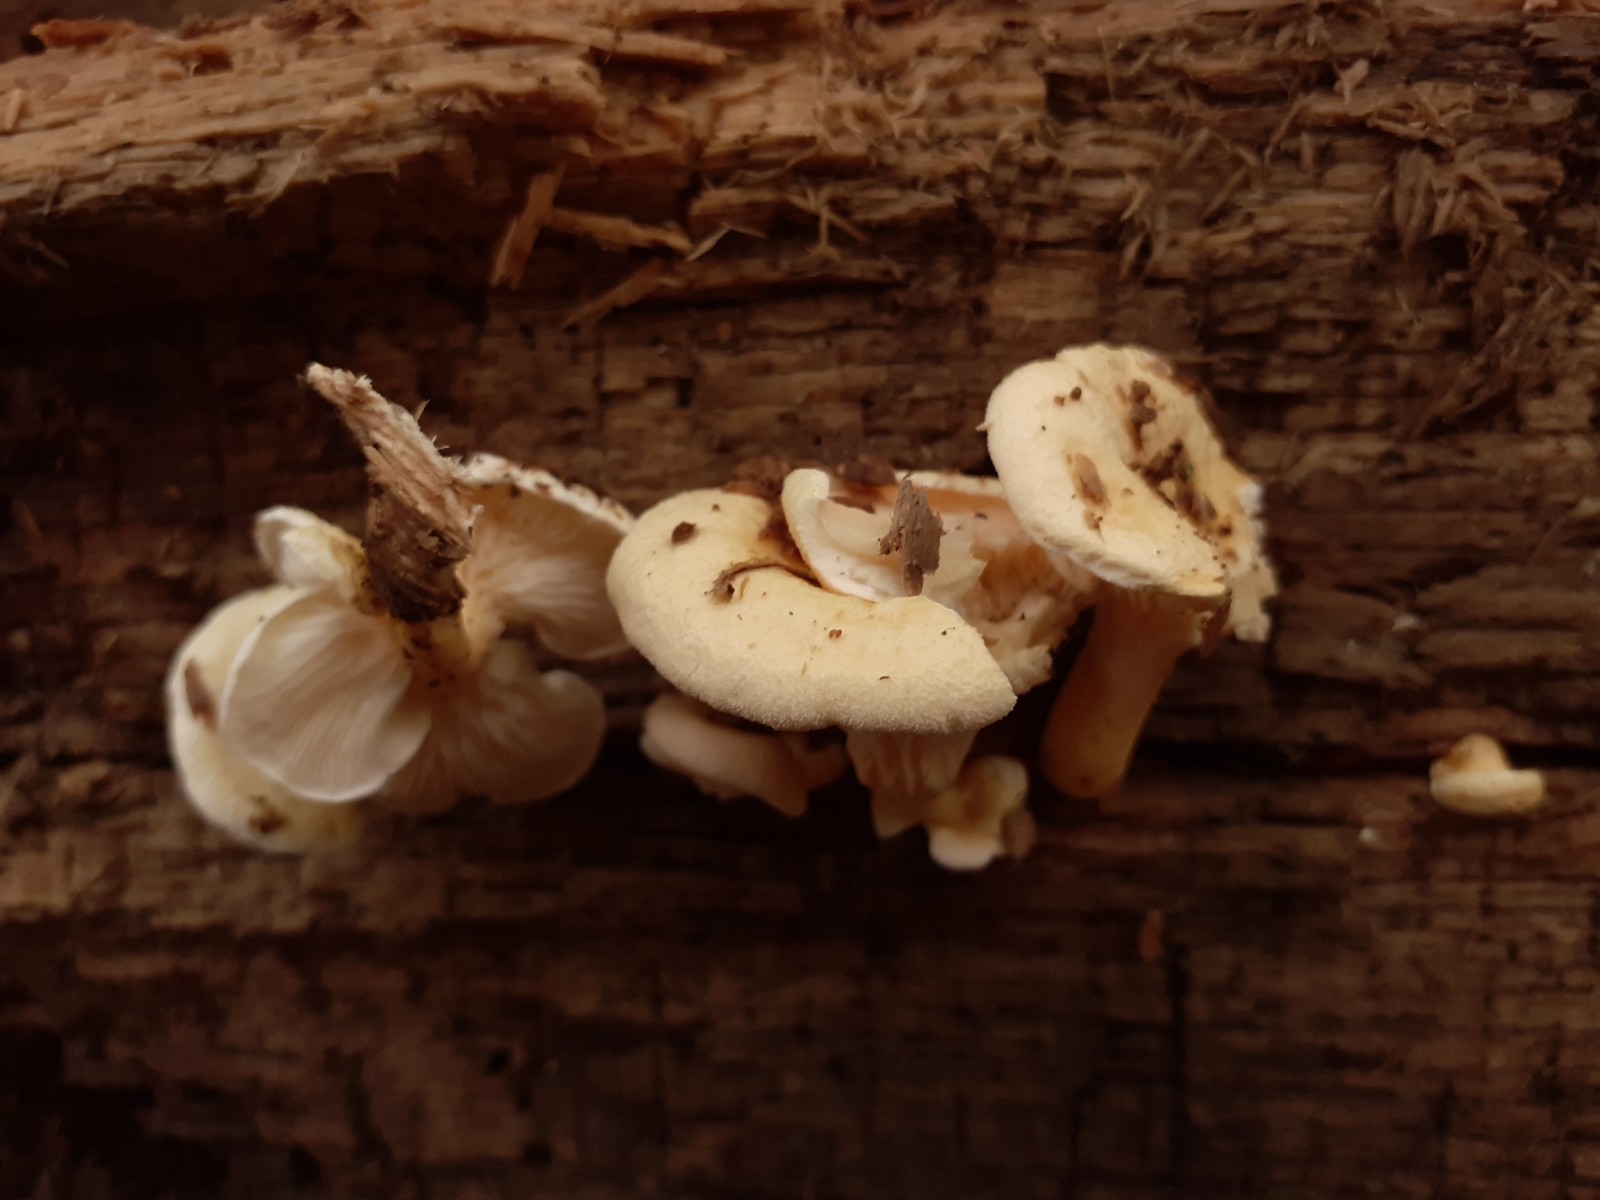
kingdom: Fungi
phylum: Basidiomycota
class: Agaricomycetes
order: Boletales
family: Hygrophoropsidaceae
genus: Hygrophoropsis
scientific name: Hygrophoropsis pallida
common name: bleg orangekantarel
